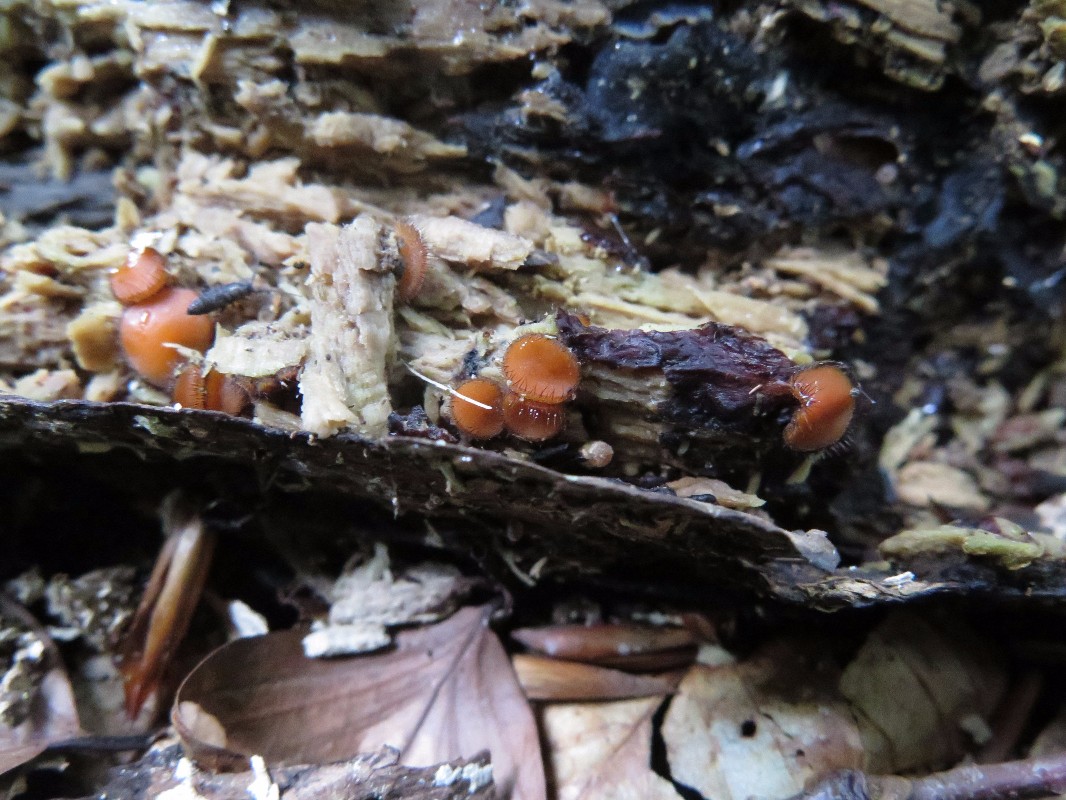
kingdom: Fungi
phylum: Ascomycota
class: Pezizomycetes
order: Pezizales
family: Pyronemataceae
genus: Scutellinia
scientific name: Scutellinia scutellata
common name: frynset skjoldbæger
